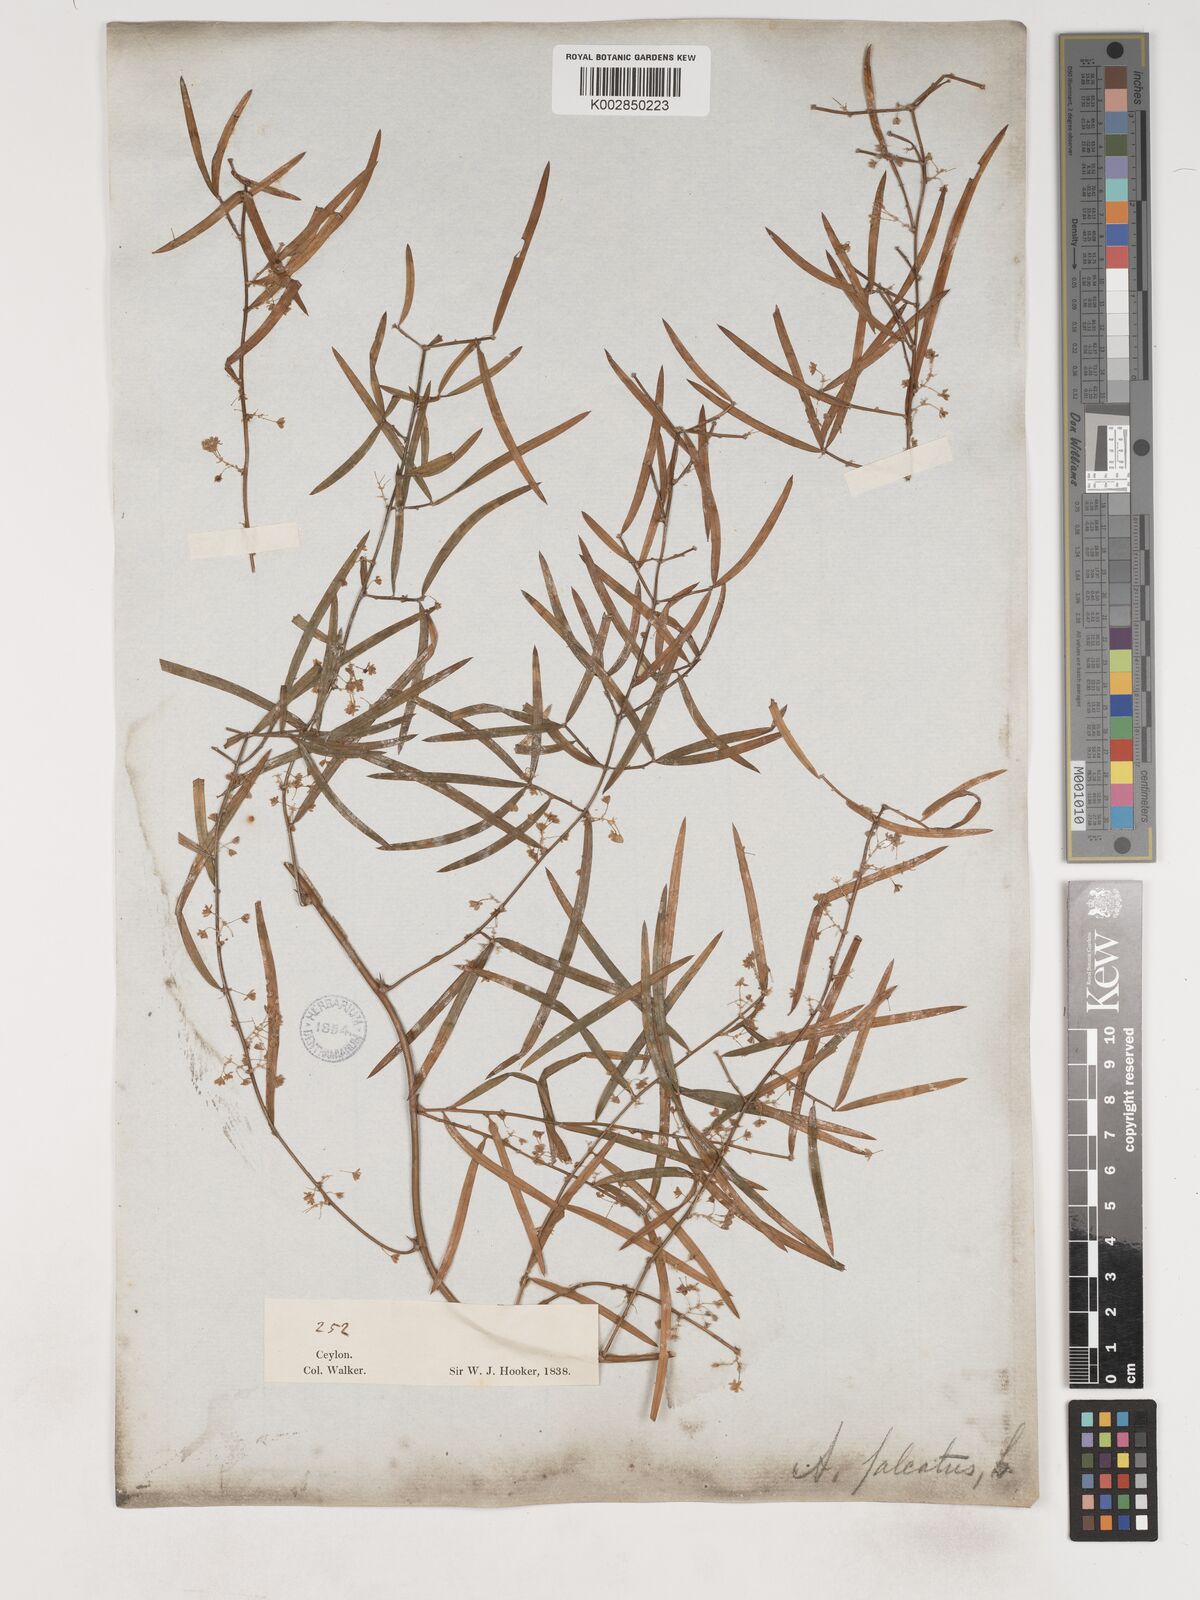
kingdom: Plantae
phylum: Tracheophyta
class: Liliopsida
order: Asparagales
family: Asparagaceae
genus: Asparagus
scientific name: Asparagus falcatus
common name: Asparagus
